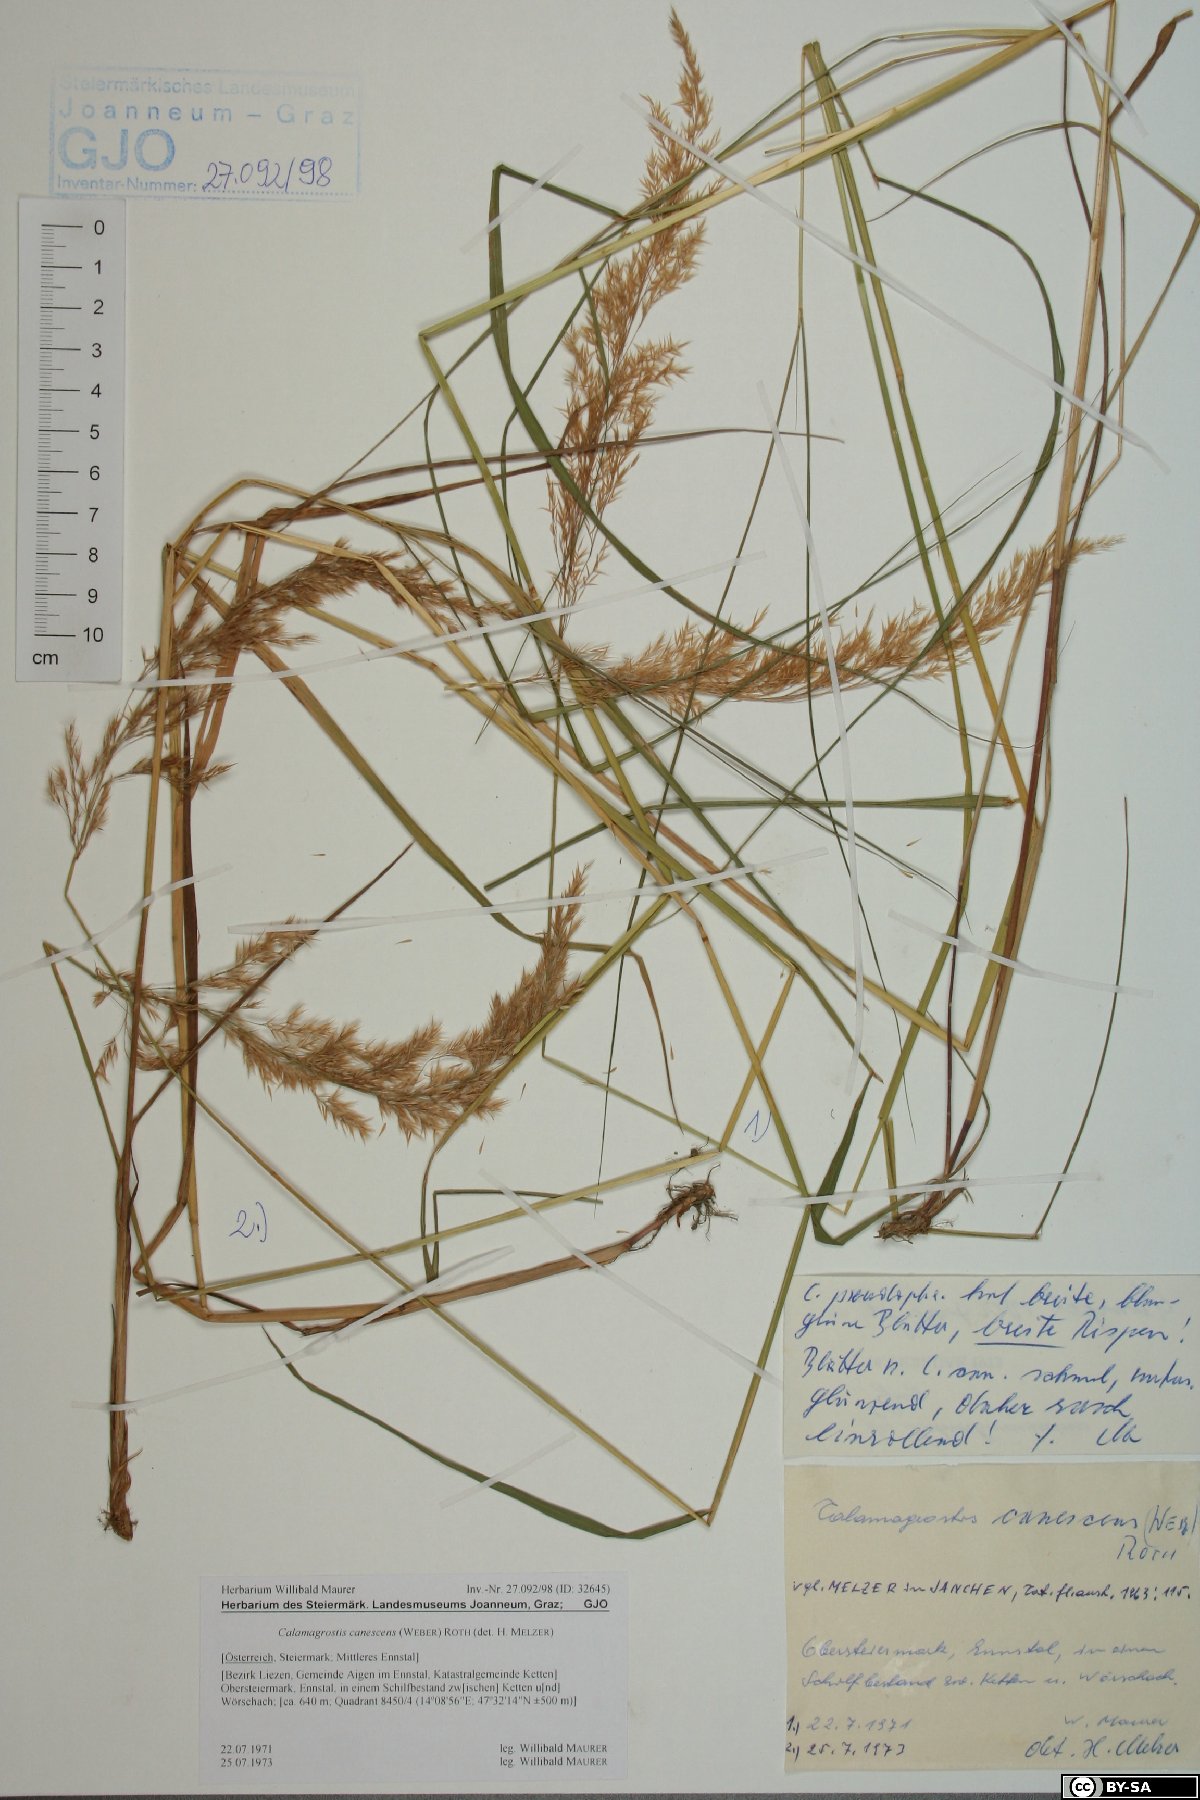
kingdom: Plantae
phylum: Tracheophyta
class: Liliopsida
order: Poales
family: Poaceae
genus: Calamagrostis
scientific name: Calamagrostis canescens
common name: Purple small-reed
